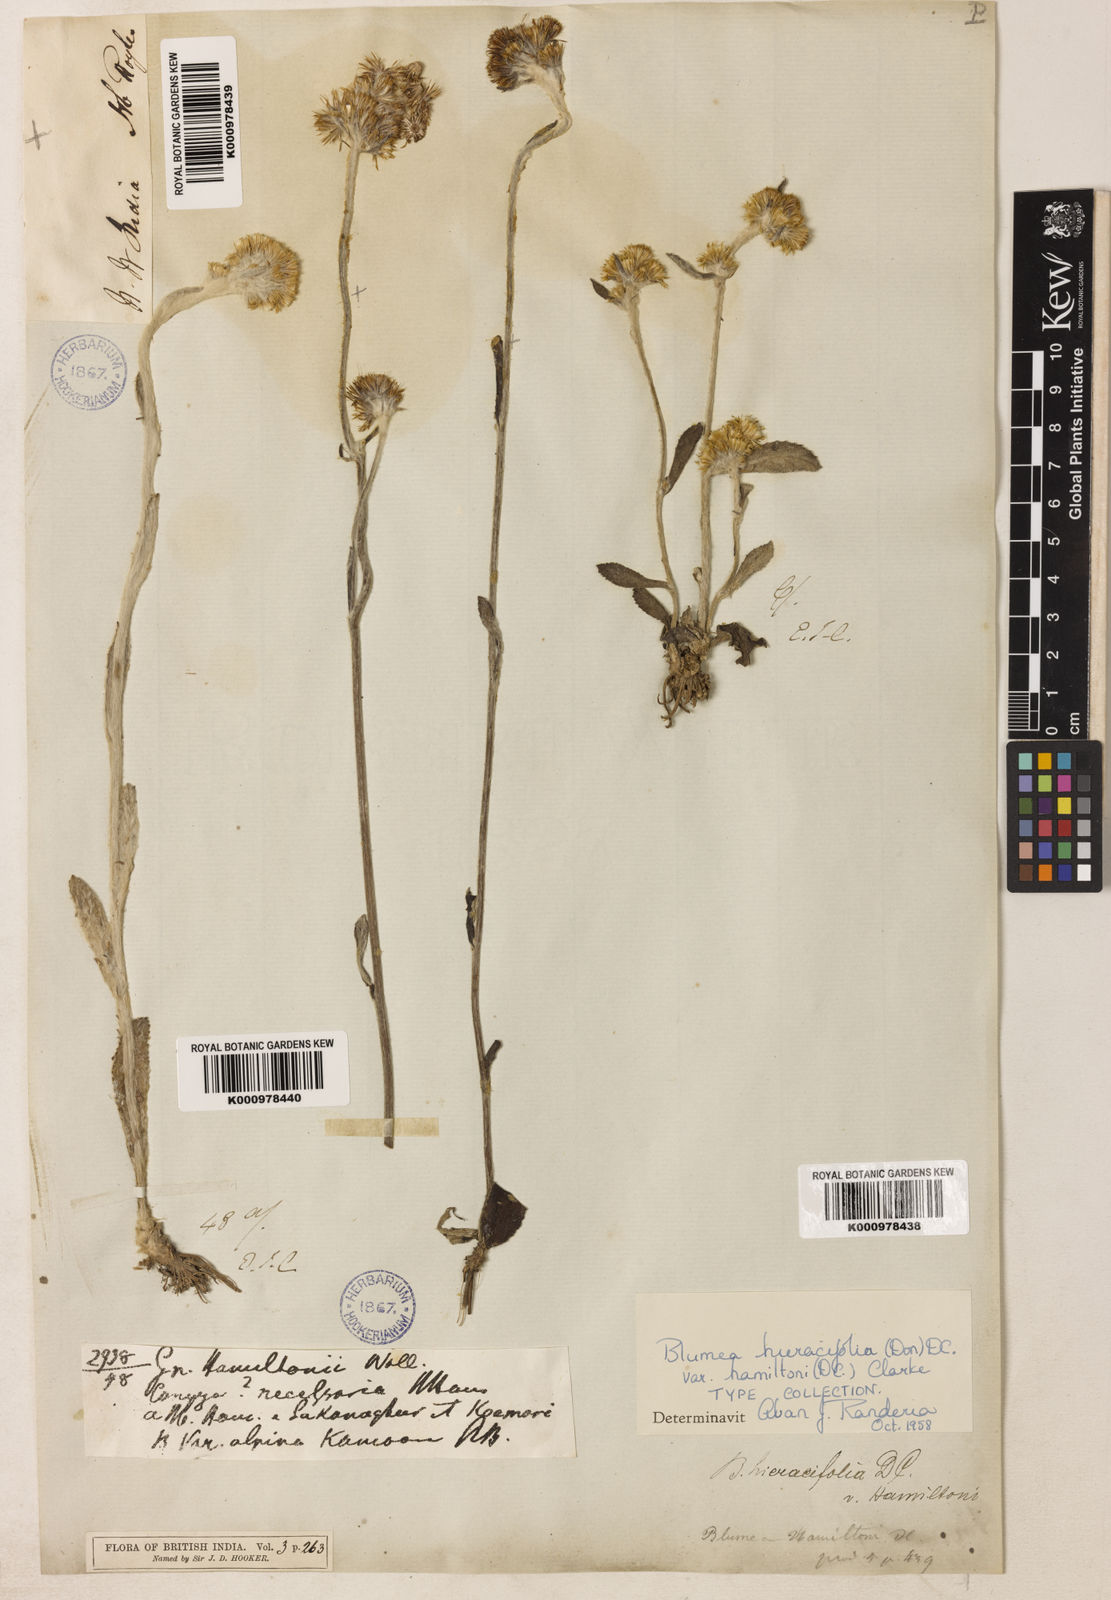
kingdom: Plantae
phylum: Tracheophyta
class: Magnoliopsida
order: Asterales
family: Asteraceae
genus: Blumea
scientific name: Blumea hieraciifolia
